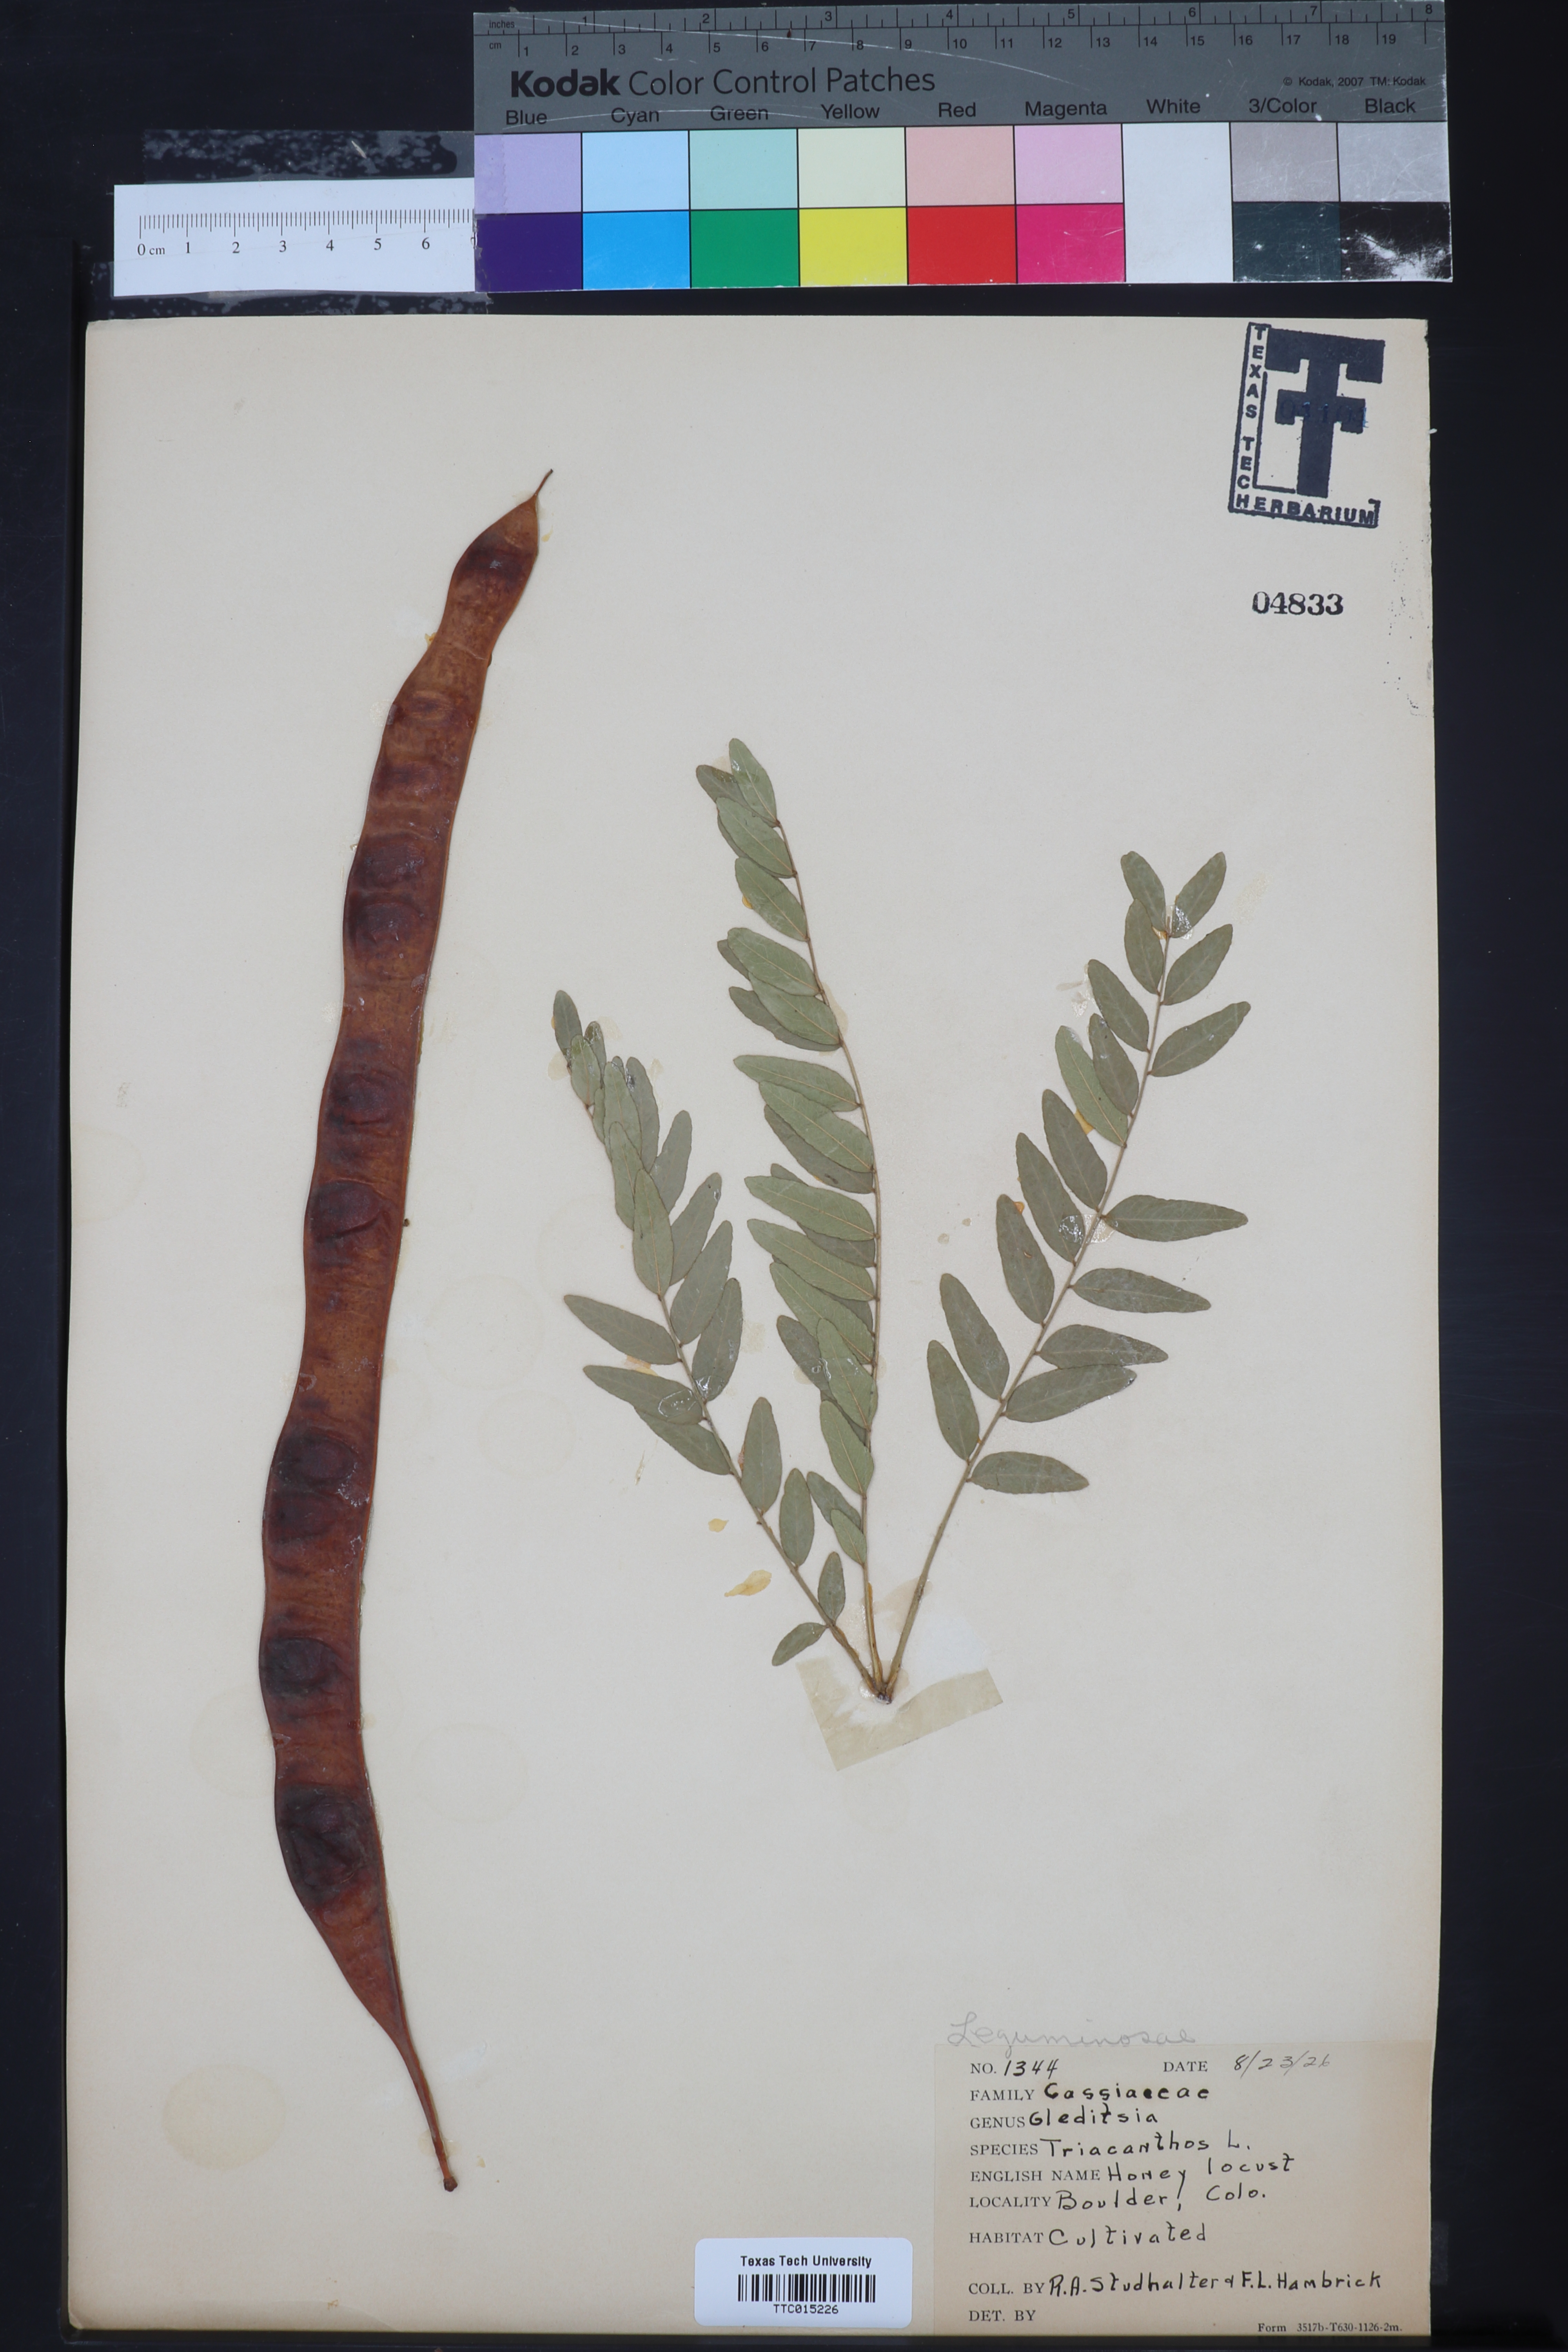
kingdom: Plantae
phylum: Tracheophyta
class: Magnoliopsida
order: Fabales
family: Fabaceae
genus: Gleditsia
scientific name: Gleditsia triacanthos
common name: Common honeylocust
